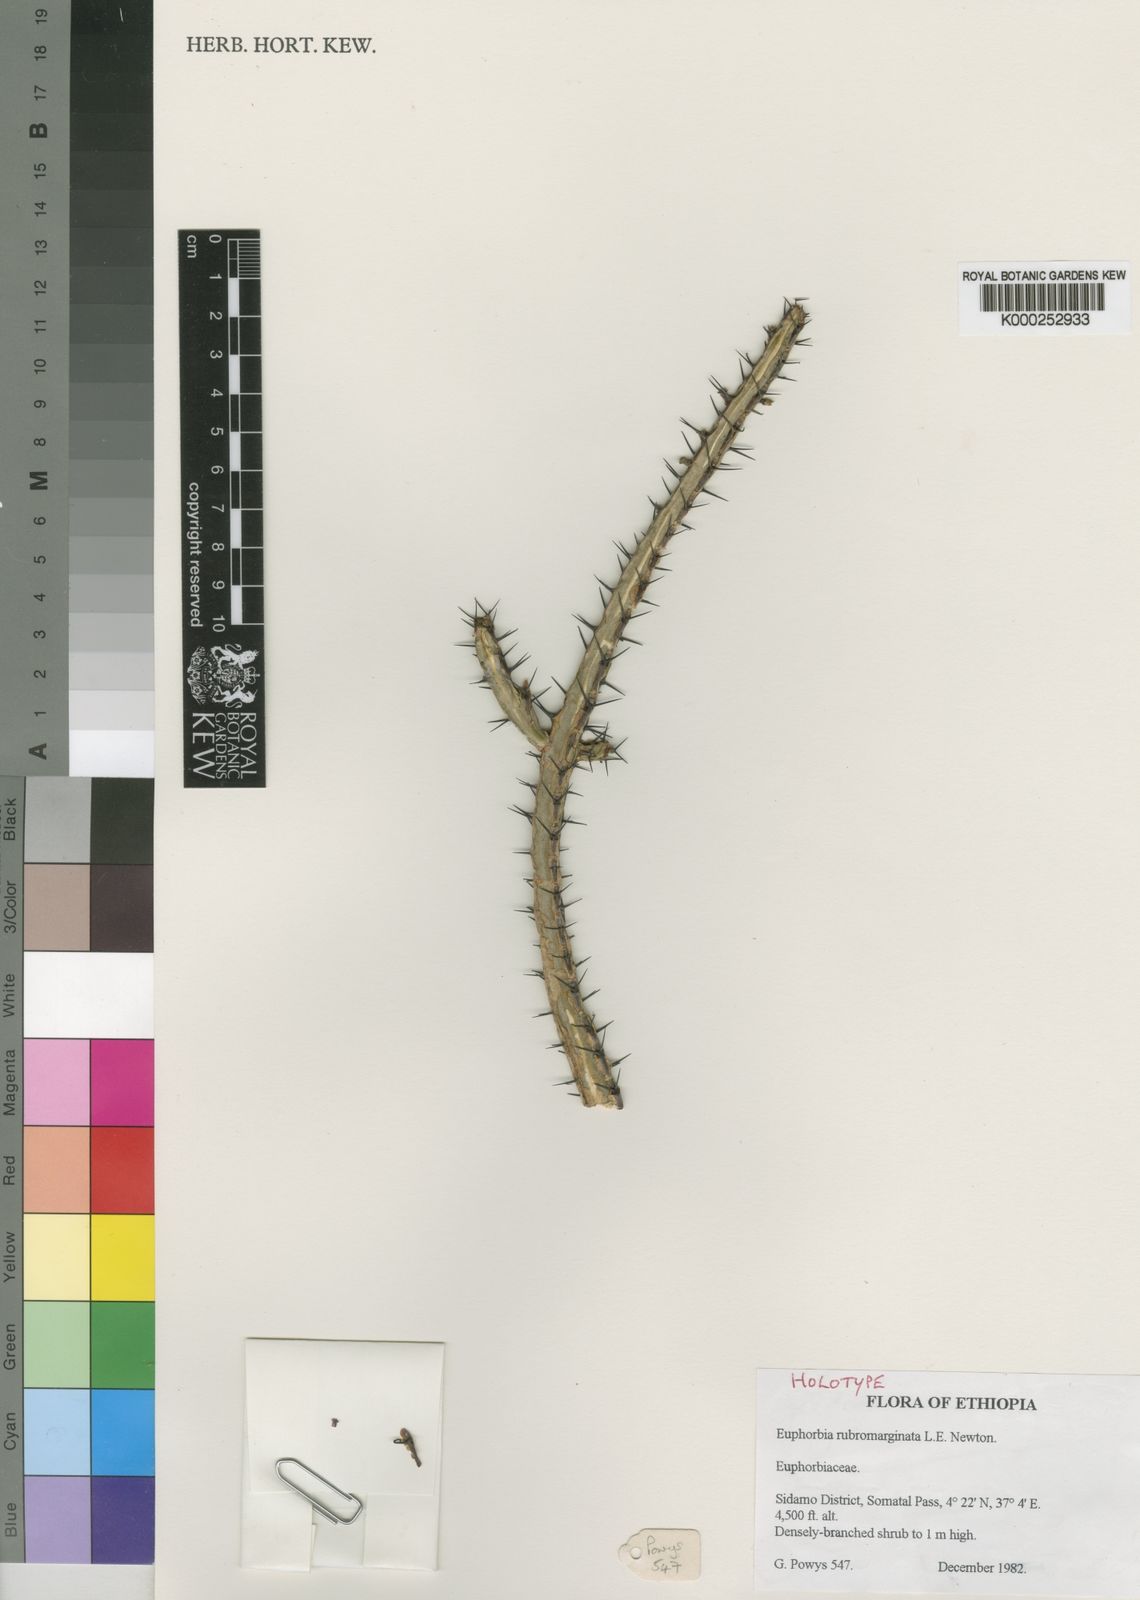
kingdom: Plantae
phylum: Tracheophyta
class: Magnoliopsida
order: Malpighiales
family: Euphorbiaceae
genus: Euphorbia
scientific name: Euphorbia rubromarginata
